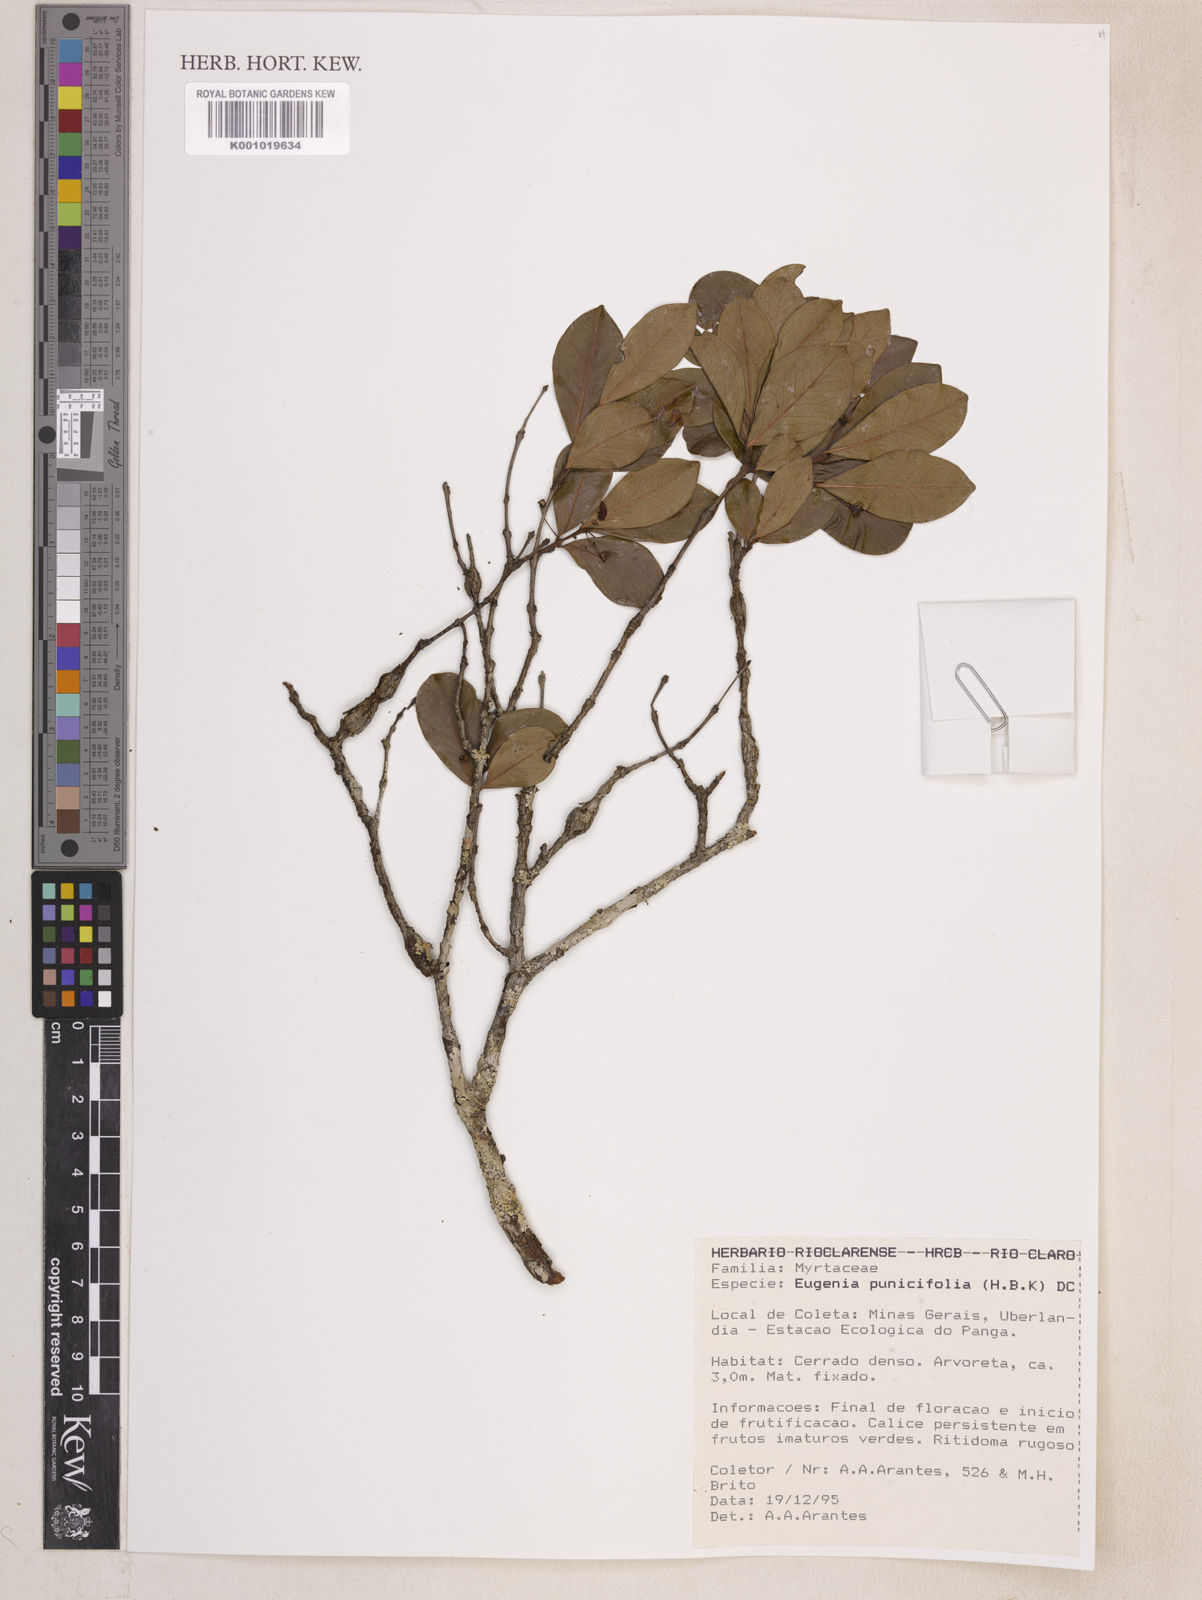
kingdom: Plantae
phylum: Tracheophyta
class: Magnoliopsida
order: Myrtales
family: Myrtaceae
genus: Eugenia
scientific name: Eugenia punicifolia
